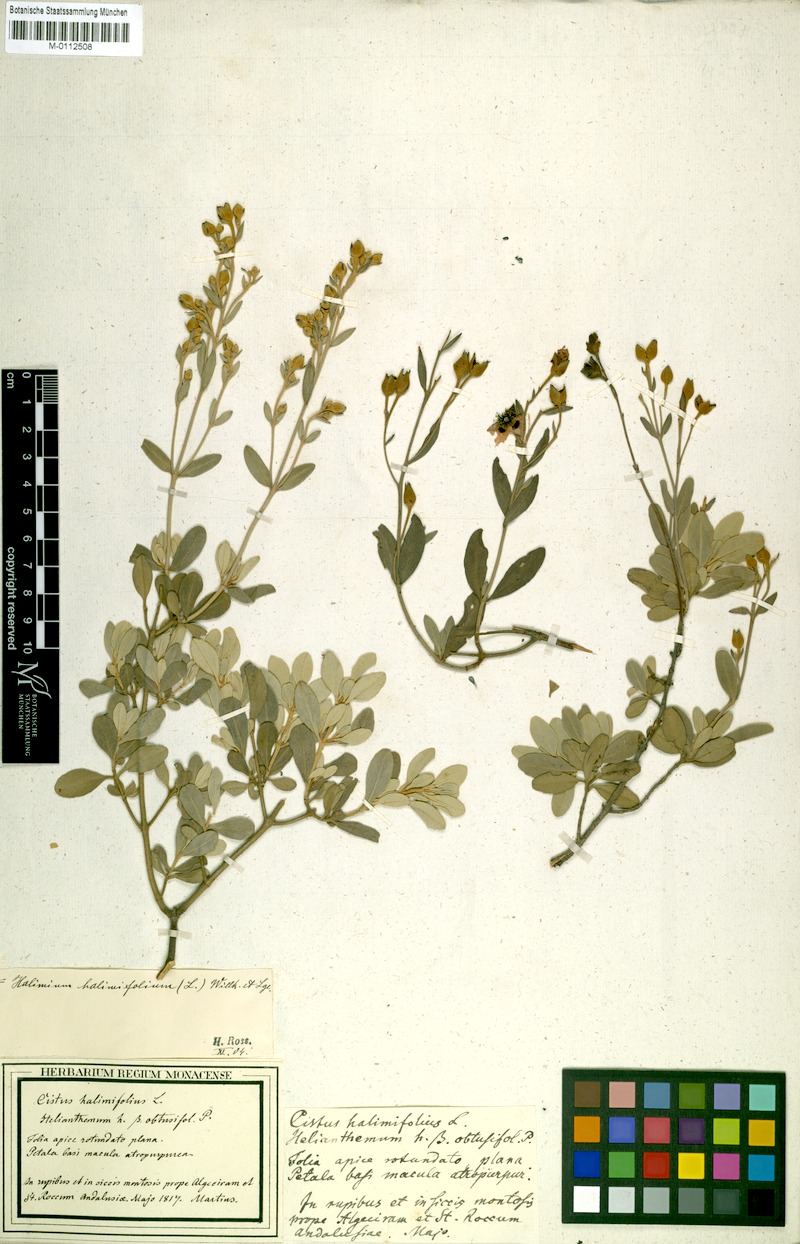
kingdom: Plantae
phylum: Tracheophyta
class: Magnoliopsida
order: Malvales
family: Cistaceae
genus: Halimium
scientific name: Halimium halimifolium
